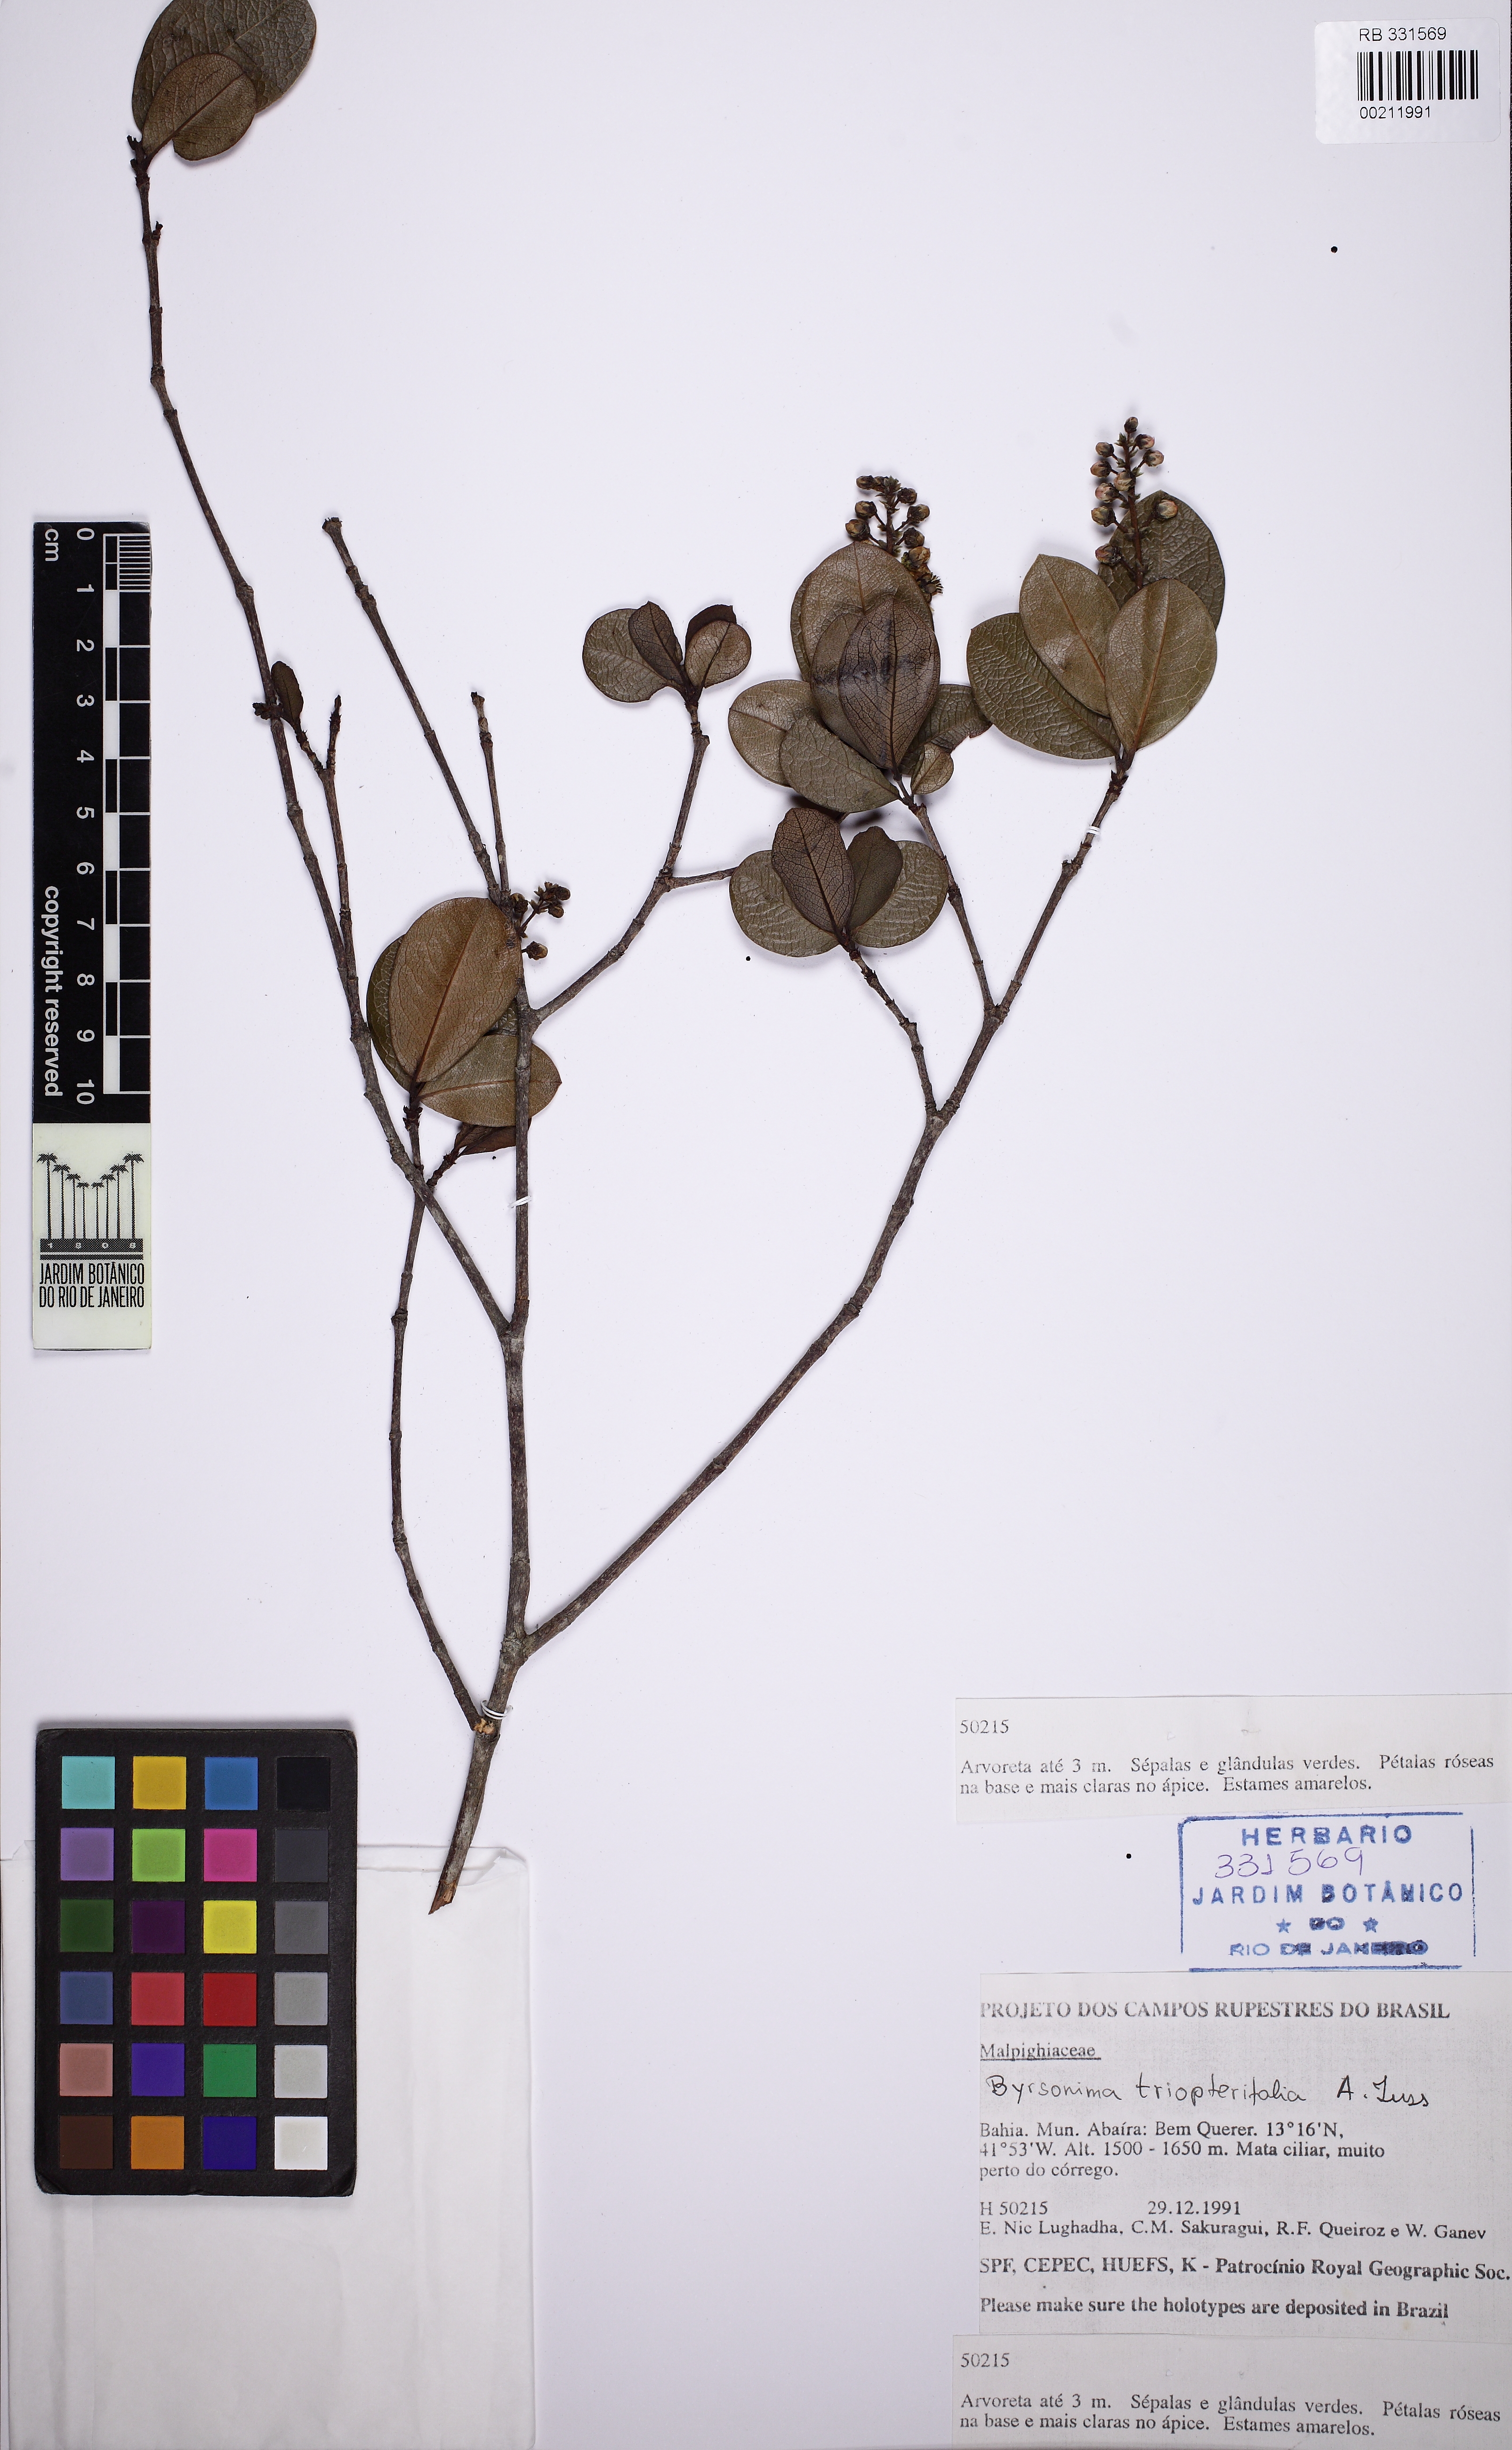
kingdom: Plantae
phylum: Tracheophyta
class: Magnoliopsida
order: Malpighiales
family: Malpighiaceae
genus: Byrsonima
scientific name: Byrsonima triopterifolia
